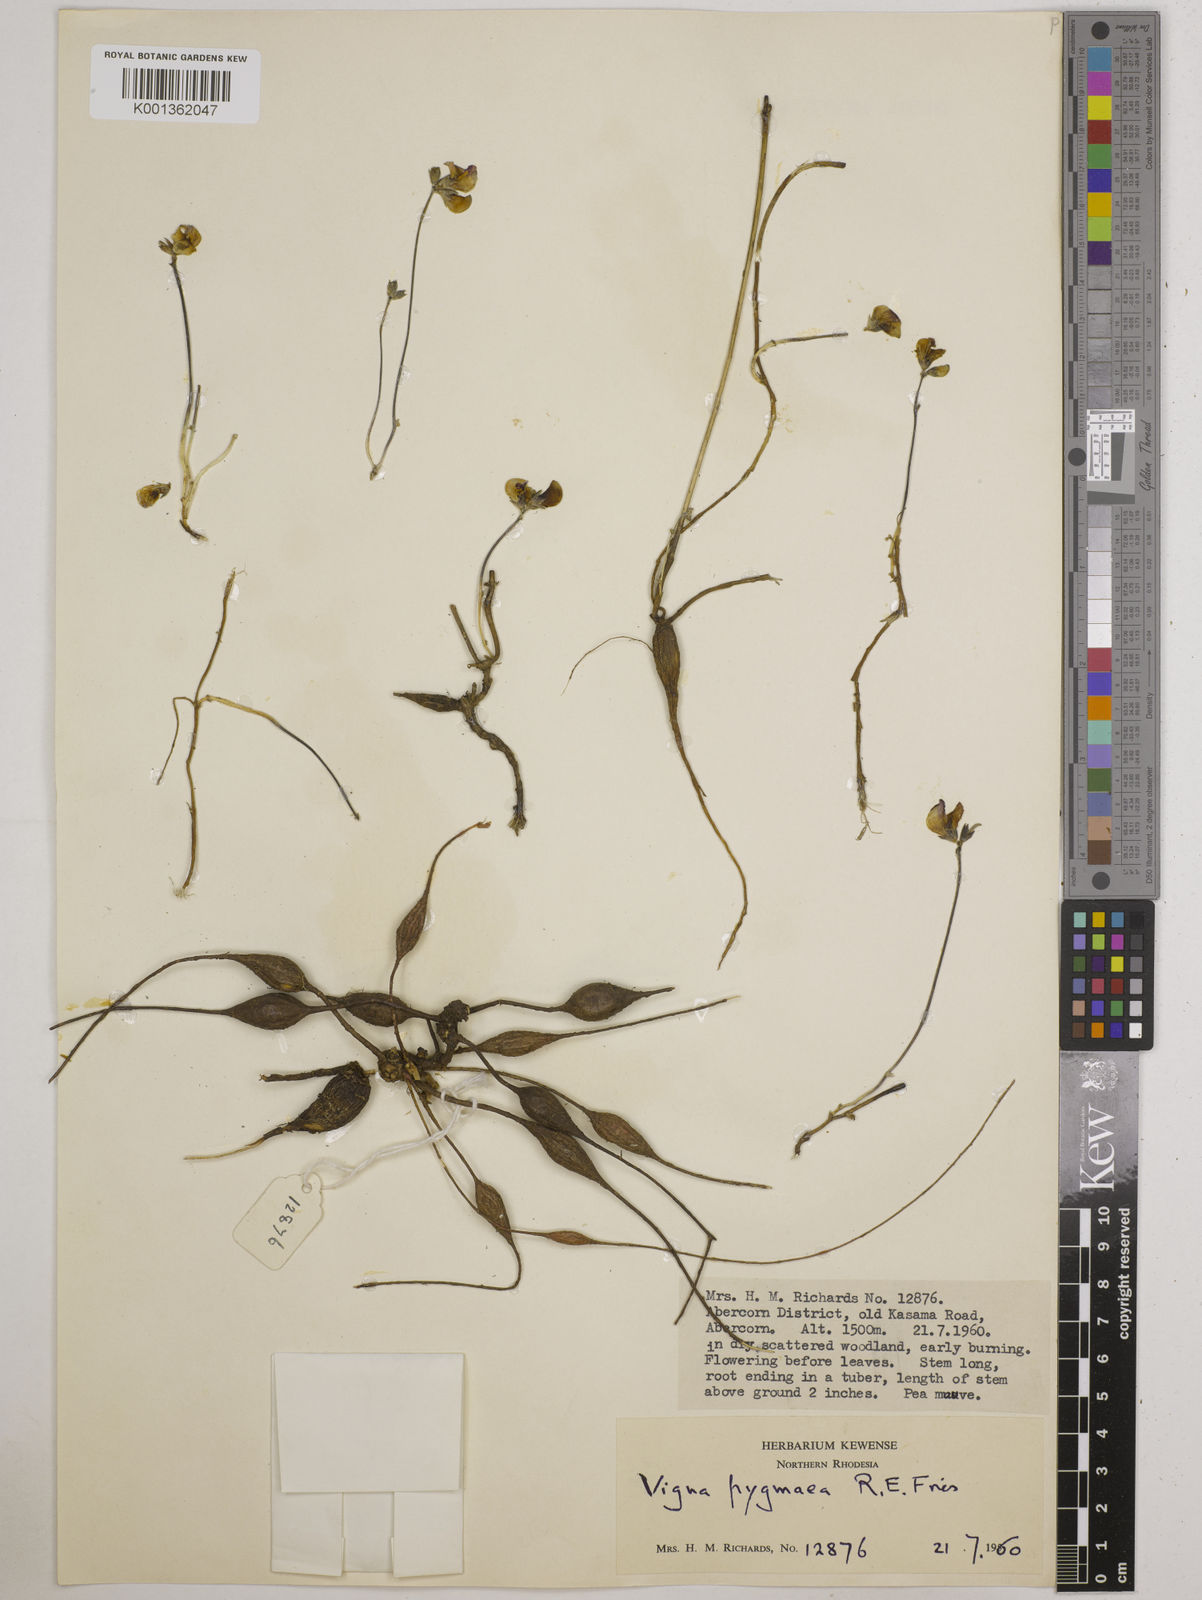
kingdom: Plantae
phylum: Tracheophyta
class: Magnoliopsida
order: Fabales
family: Fabaceae
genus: Vigna
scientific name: Vigna pygmaea
